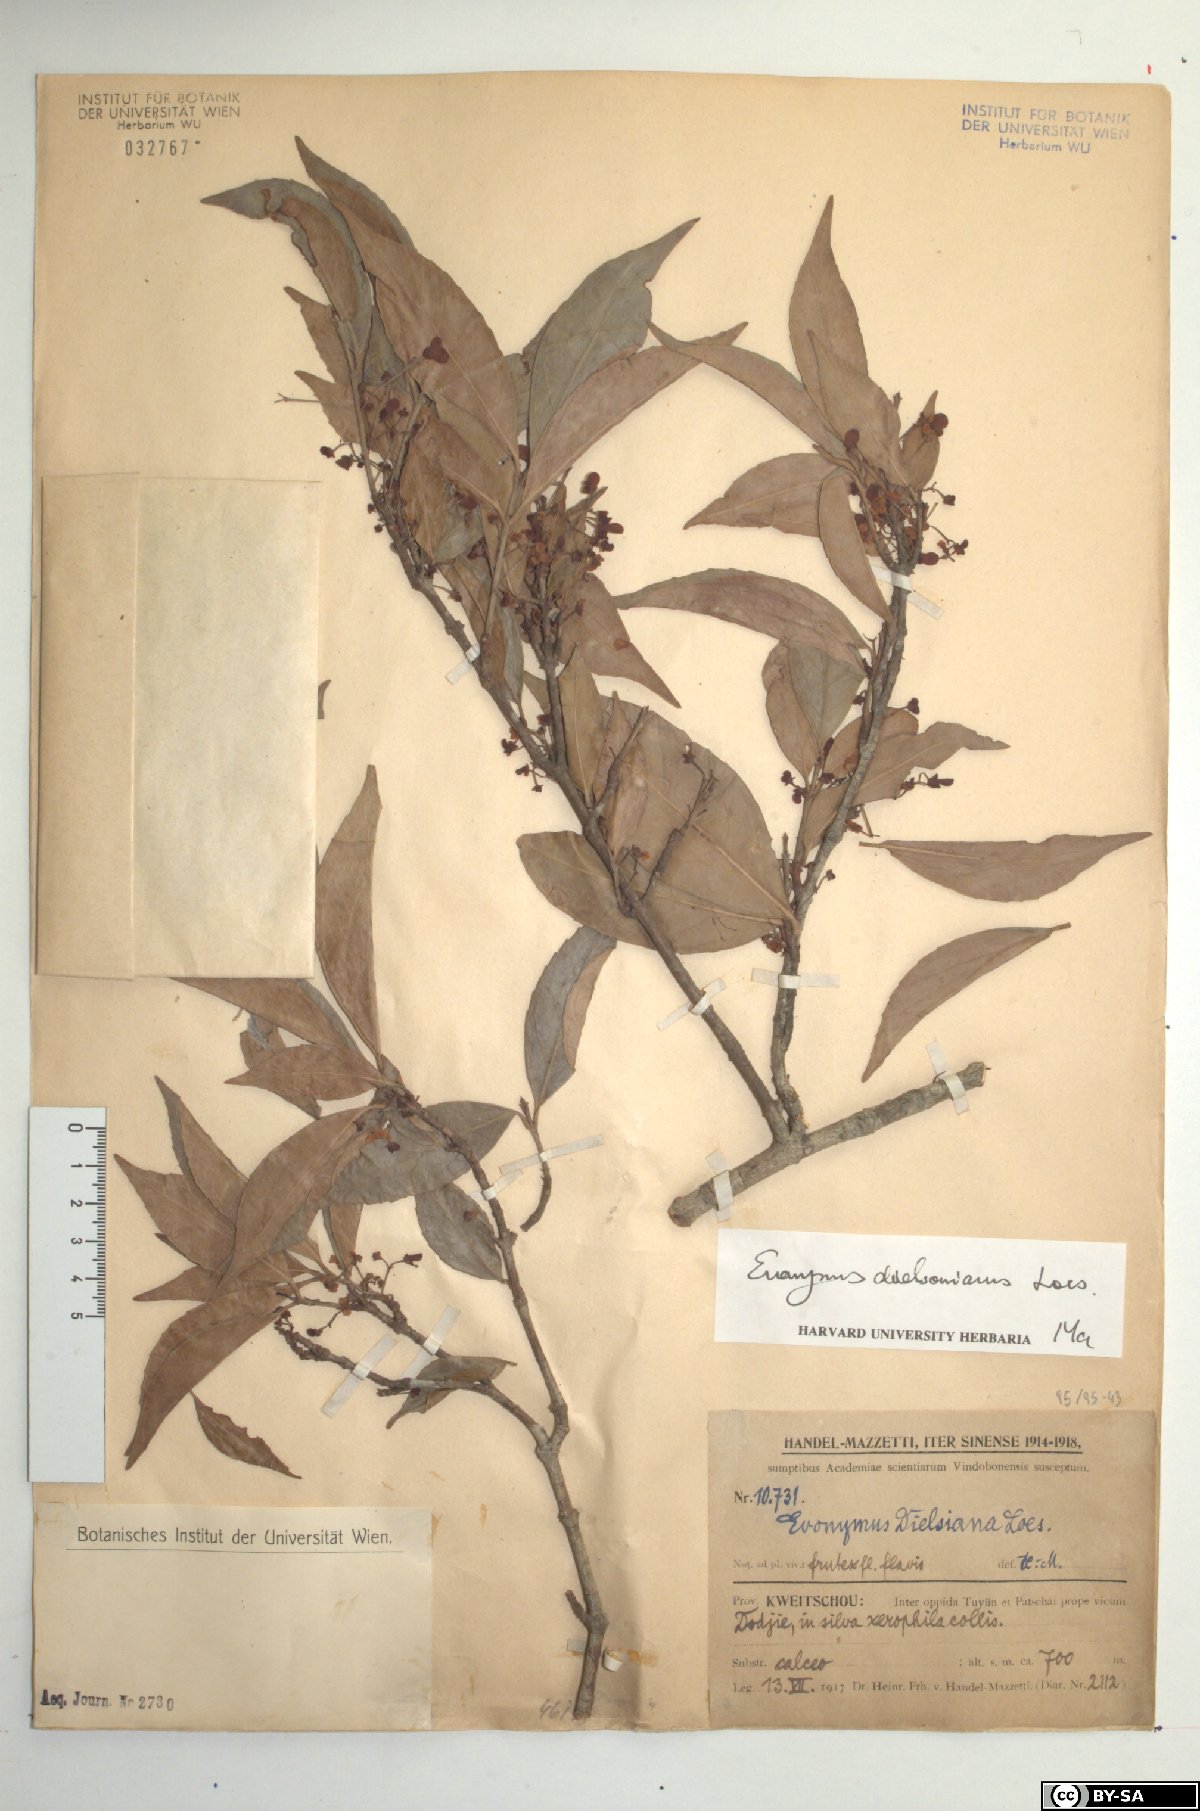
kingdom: Plantae
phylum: Tracheophyta
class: Magnoliopsida
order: Celastrales
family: Celastraceae
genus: Euonymus
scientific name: Euonymus dielsianus
